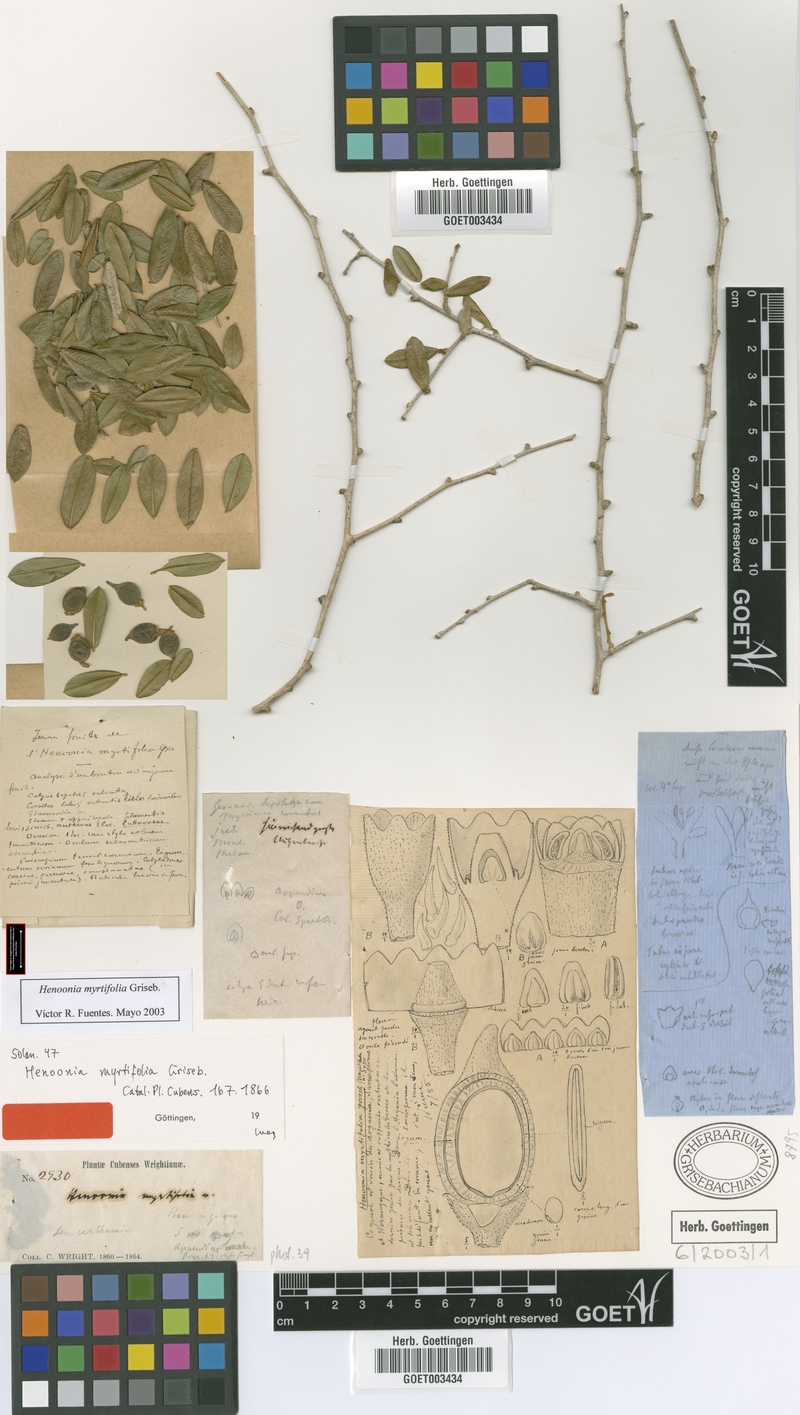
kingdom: Plantae
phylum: Tracheophyta
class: Magnoliopsida
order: Solanales
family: Solanaceae
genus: Henoonia
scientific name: Henoonia myrtifolia
